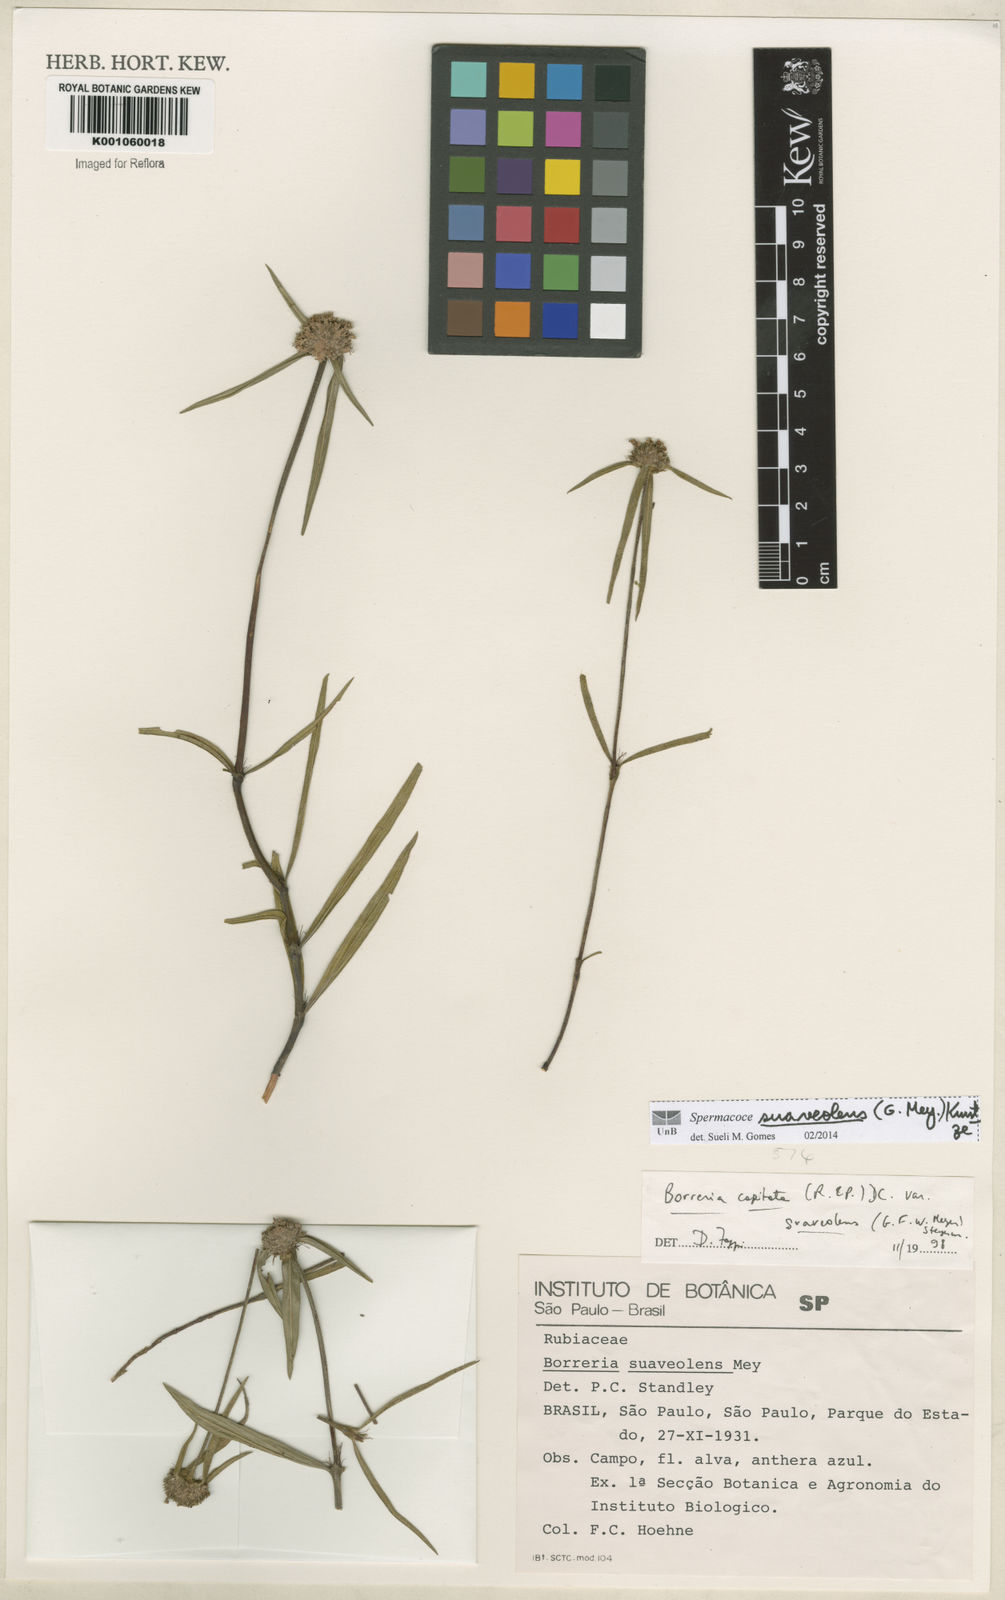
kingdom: Plantae
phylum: Tracheophyta
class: Magnoliopsida
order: Gentianales
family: Rubiaceae
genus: Spermacoce
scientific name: Spermacoce suaveolens
